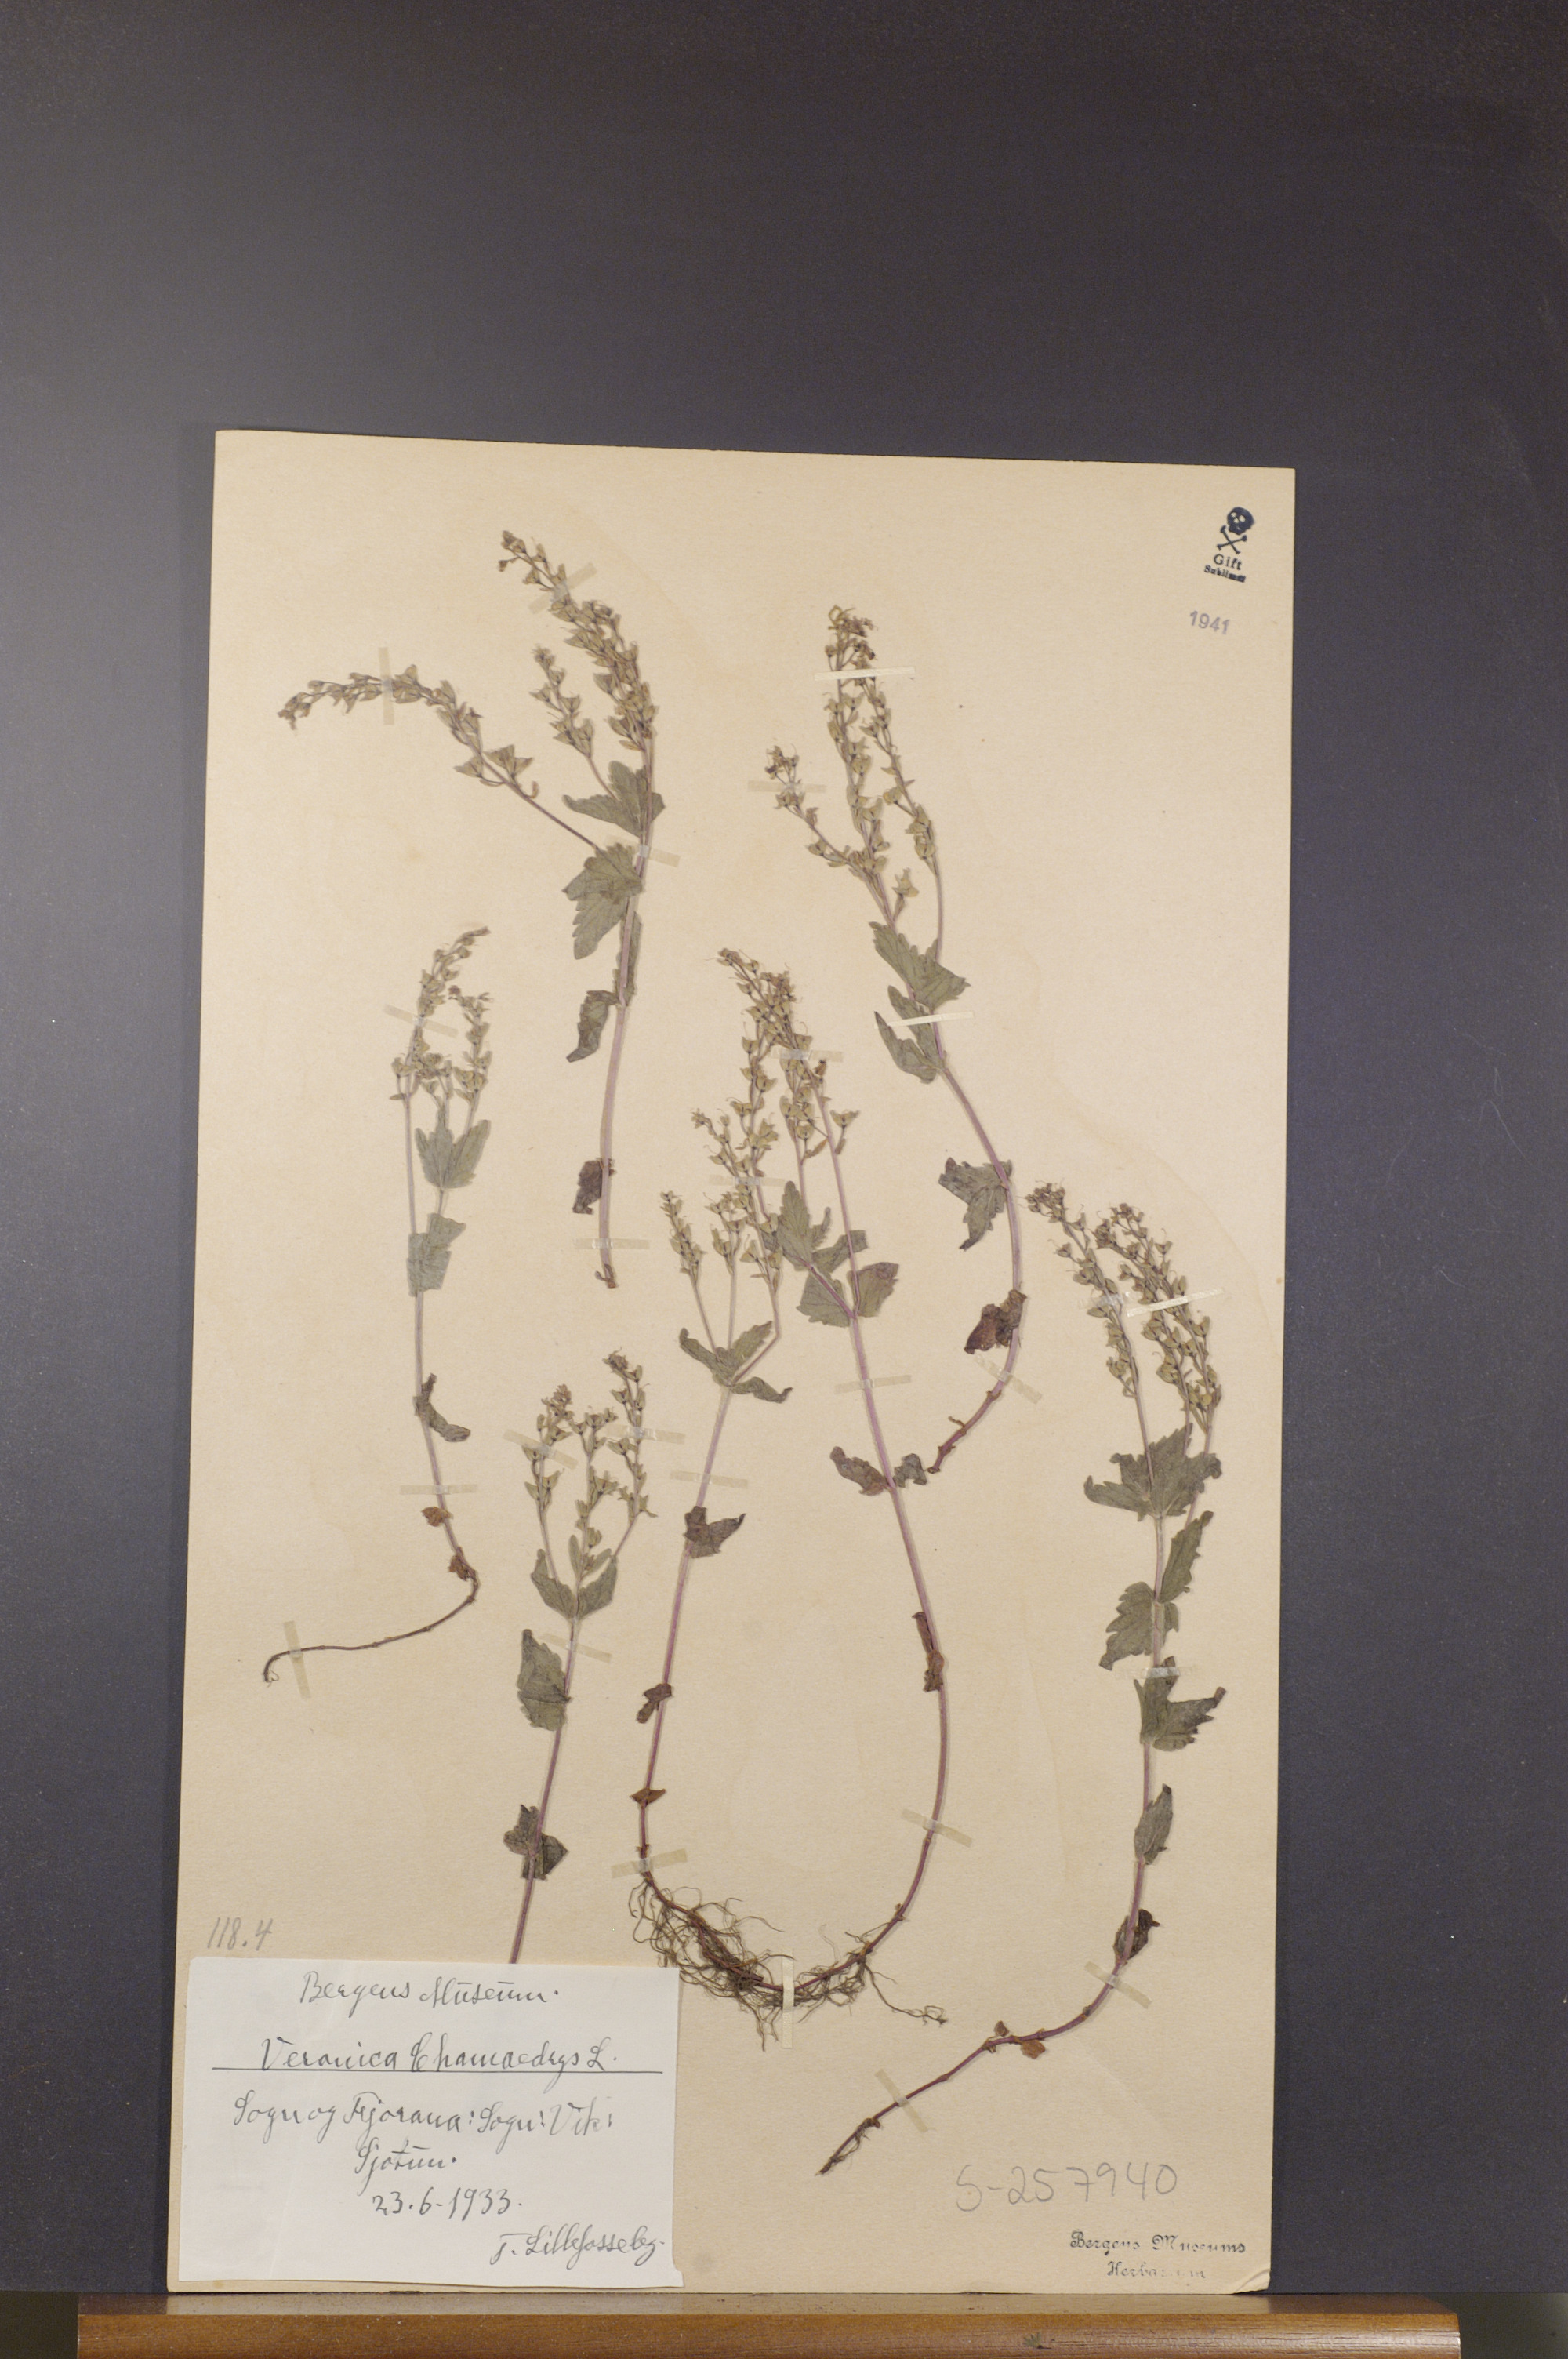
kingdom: Plantae
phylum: Tracheophyta
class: Magnoliopsida
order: Lamiales
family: Plantaginaceae
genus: Veronica
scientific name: Veronica chamaedrys
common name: Germander speedwell
